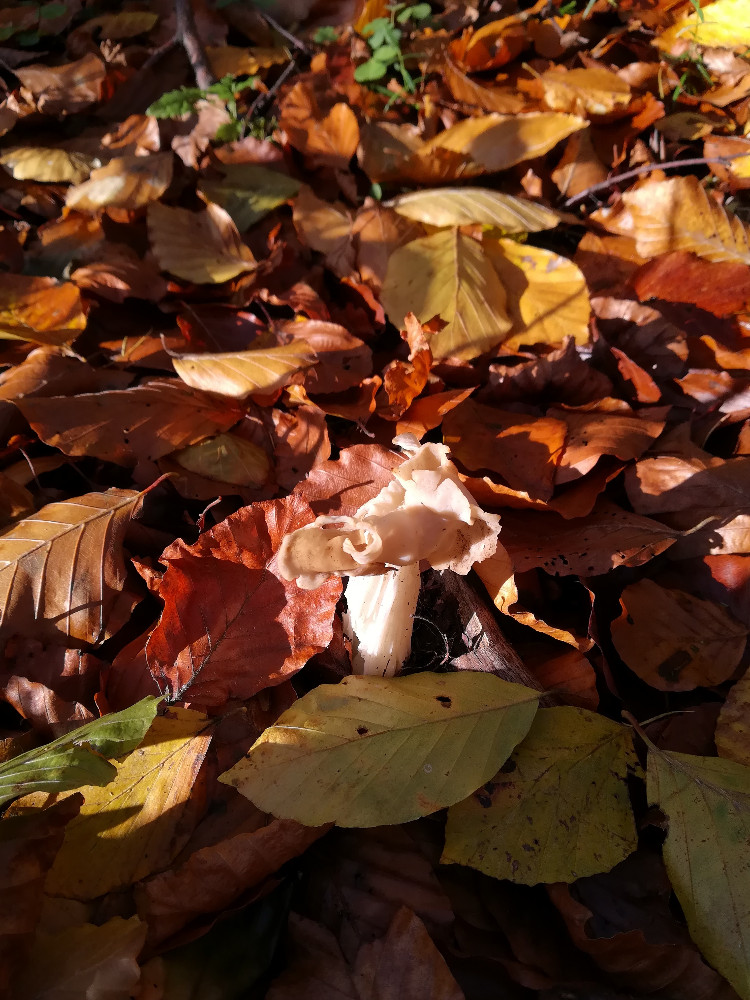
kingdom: Fungi
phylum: Ascomycota
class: Pezizomycetes
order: Pezizales
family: Helvellaceae
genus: Helvella
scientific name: Helvella crispa
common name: kruset foldhat
